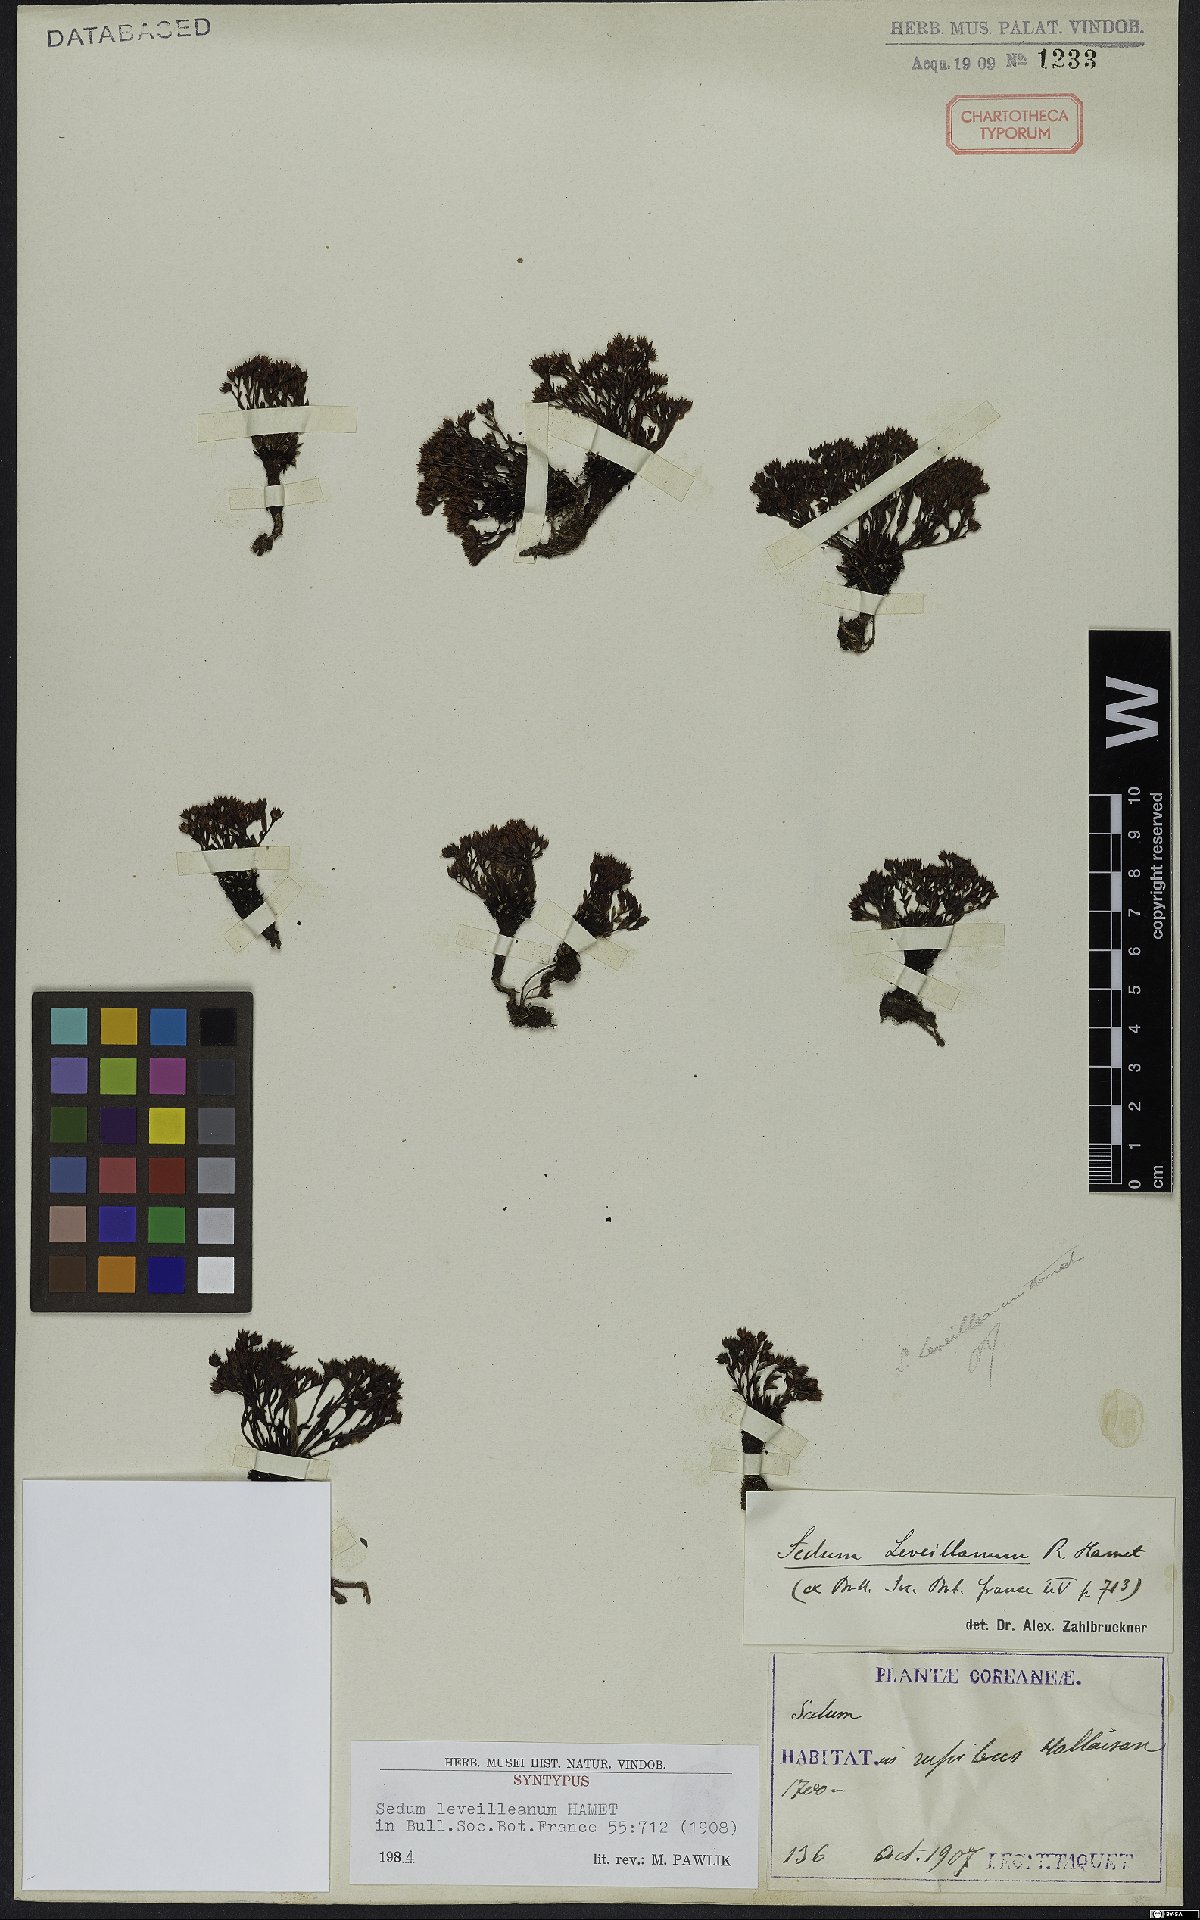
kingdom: Plantae
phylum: Tracheophyta
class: Magnoliopsida
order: Saxifragales
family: Crassulaceae
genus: Meterostachys
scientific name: Meterostachys sikokianus
